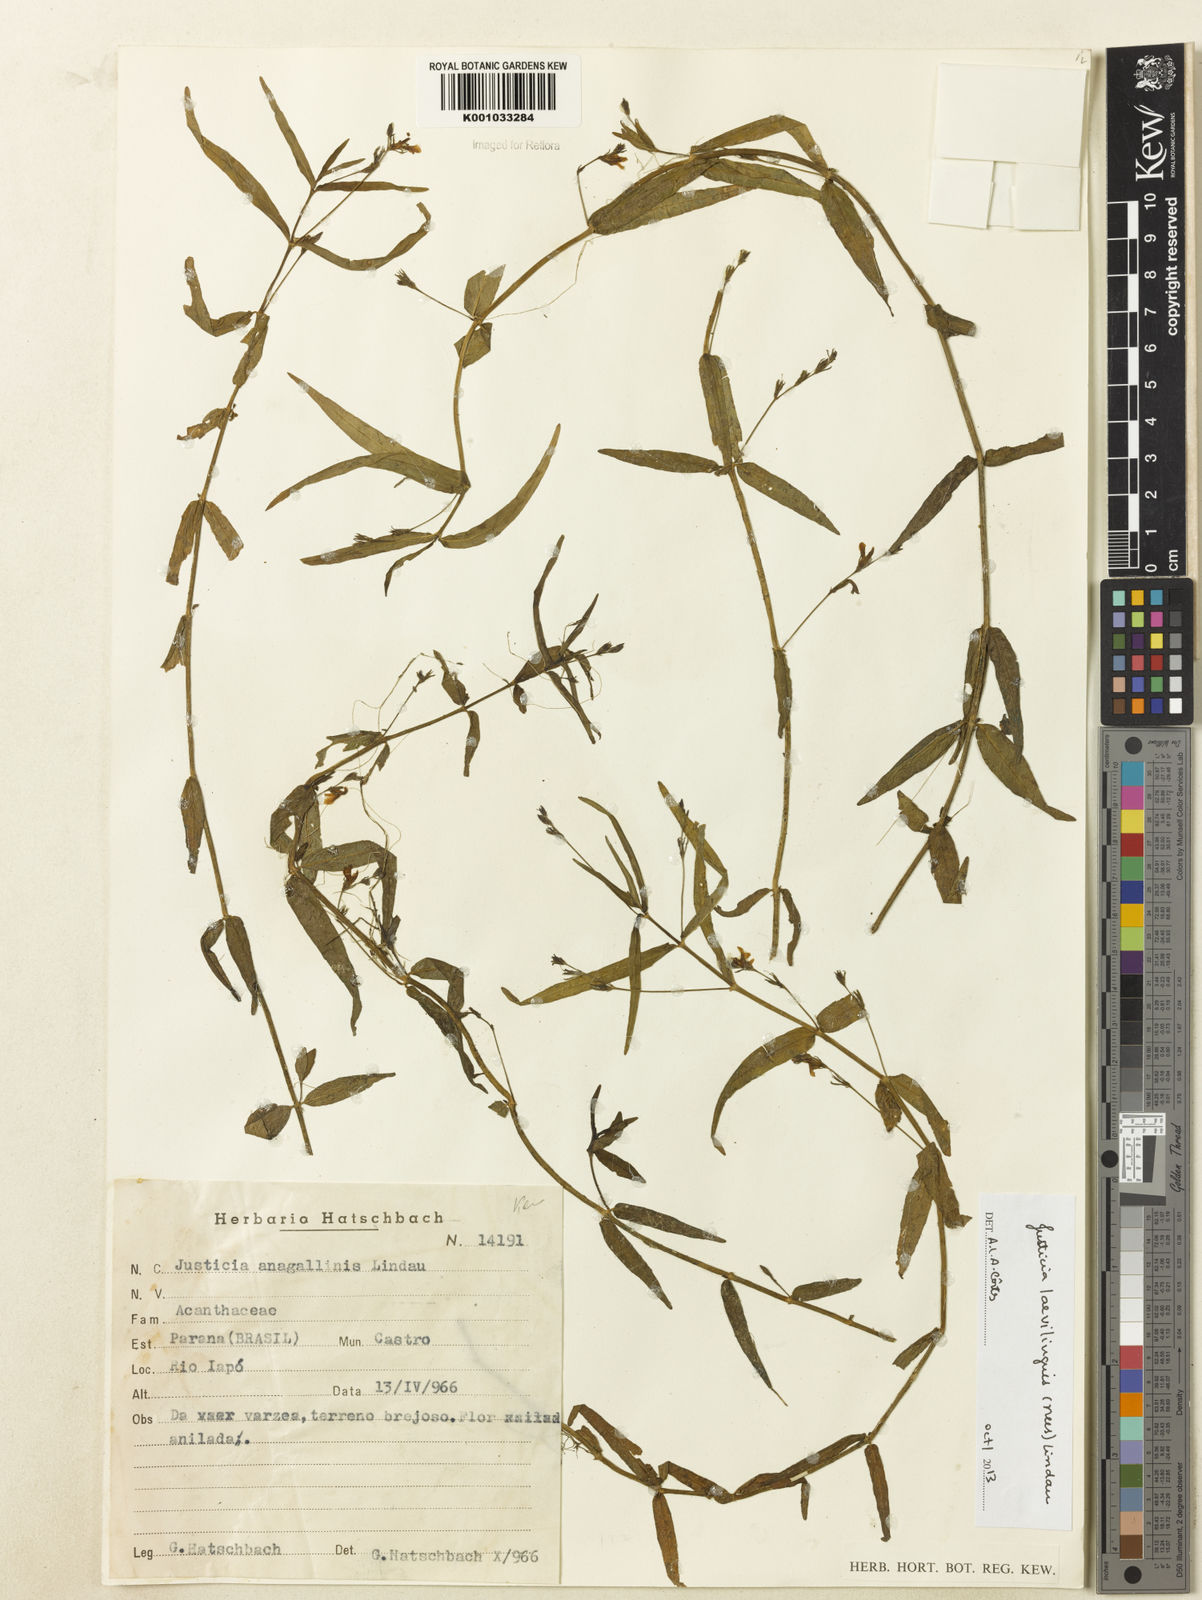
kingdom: Plantae
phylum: Tracheophyta
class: Magnoliopsida
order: Lamiales
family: Acanthaceae
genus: Dianthera
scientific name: Dianthera laevilinguis
